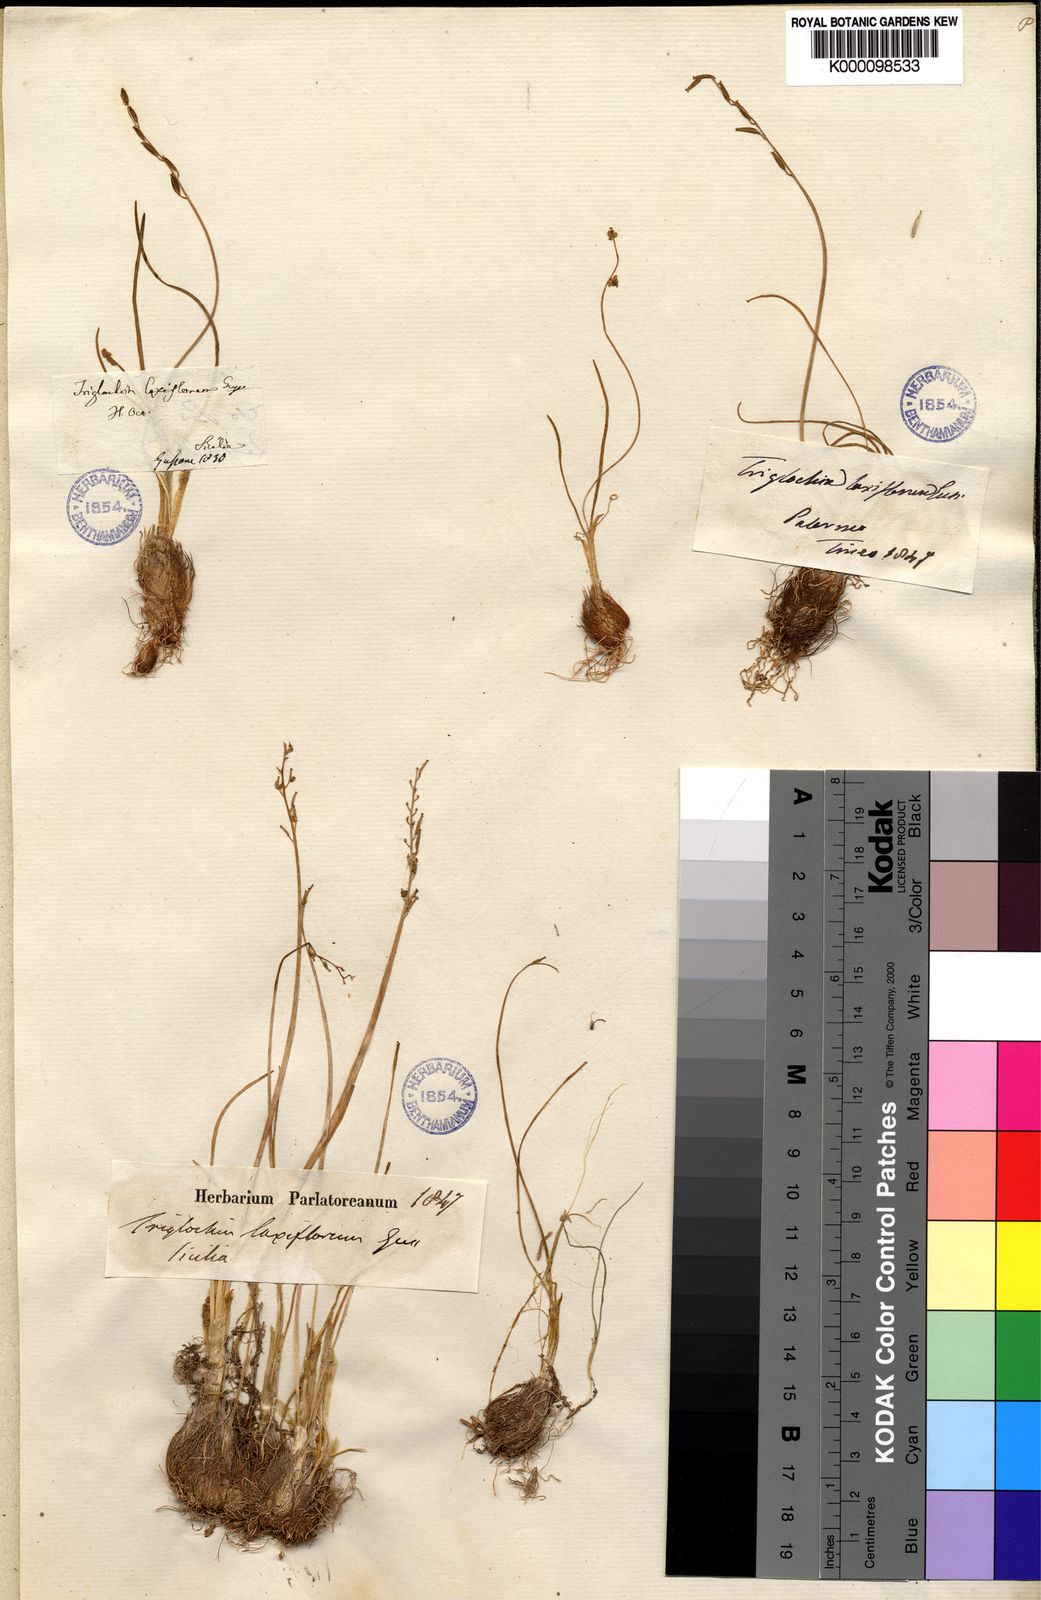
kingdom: Plantae
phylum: Tracheophyta
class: Liliopsida
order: Alismatales
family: Juncaginaceae
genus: Triglochin
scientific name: Triglochin laxiflora
